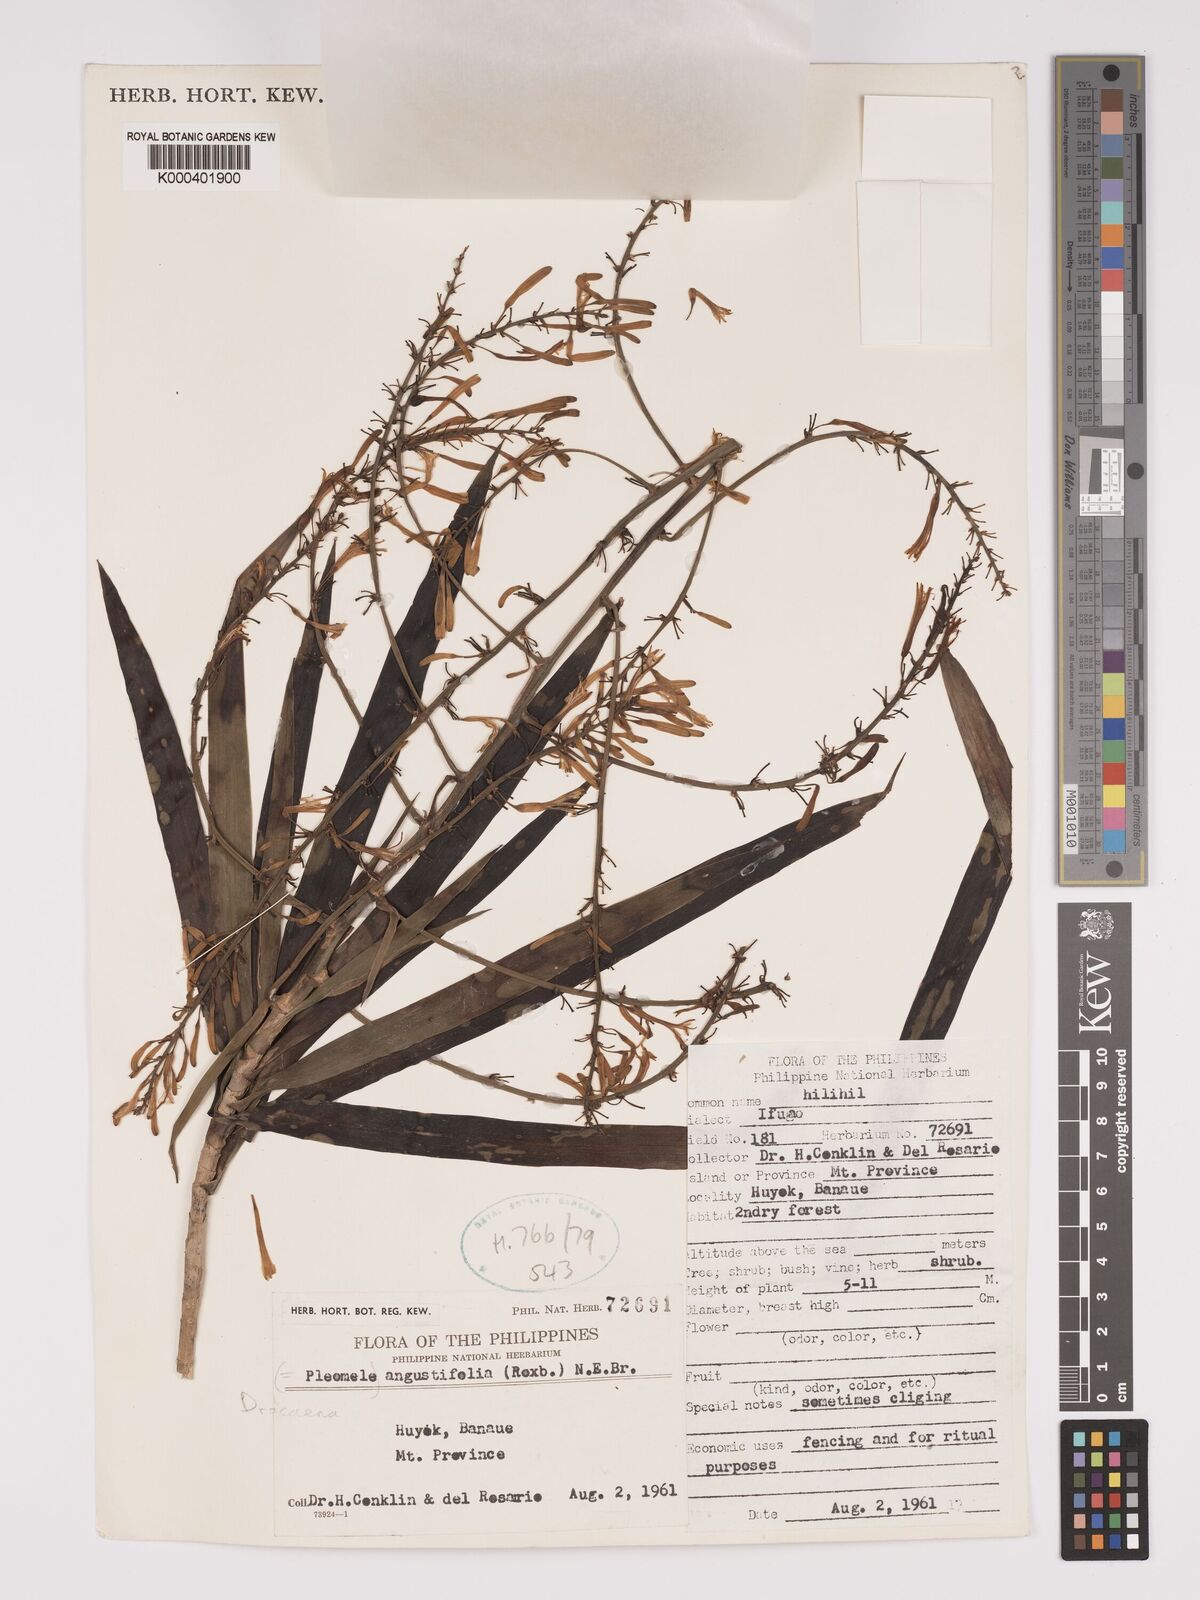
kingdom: Plantae
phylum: Tracheophyta
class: Liliopsida
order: Asparagales
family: Asparagaceae
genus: Dracaena
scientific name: Dracaena angustifolia
